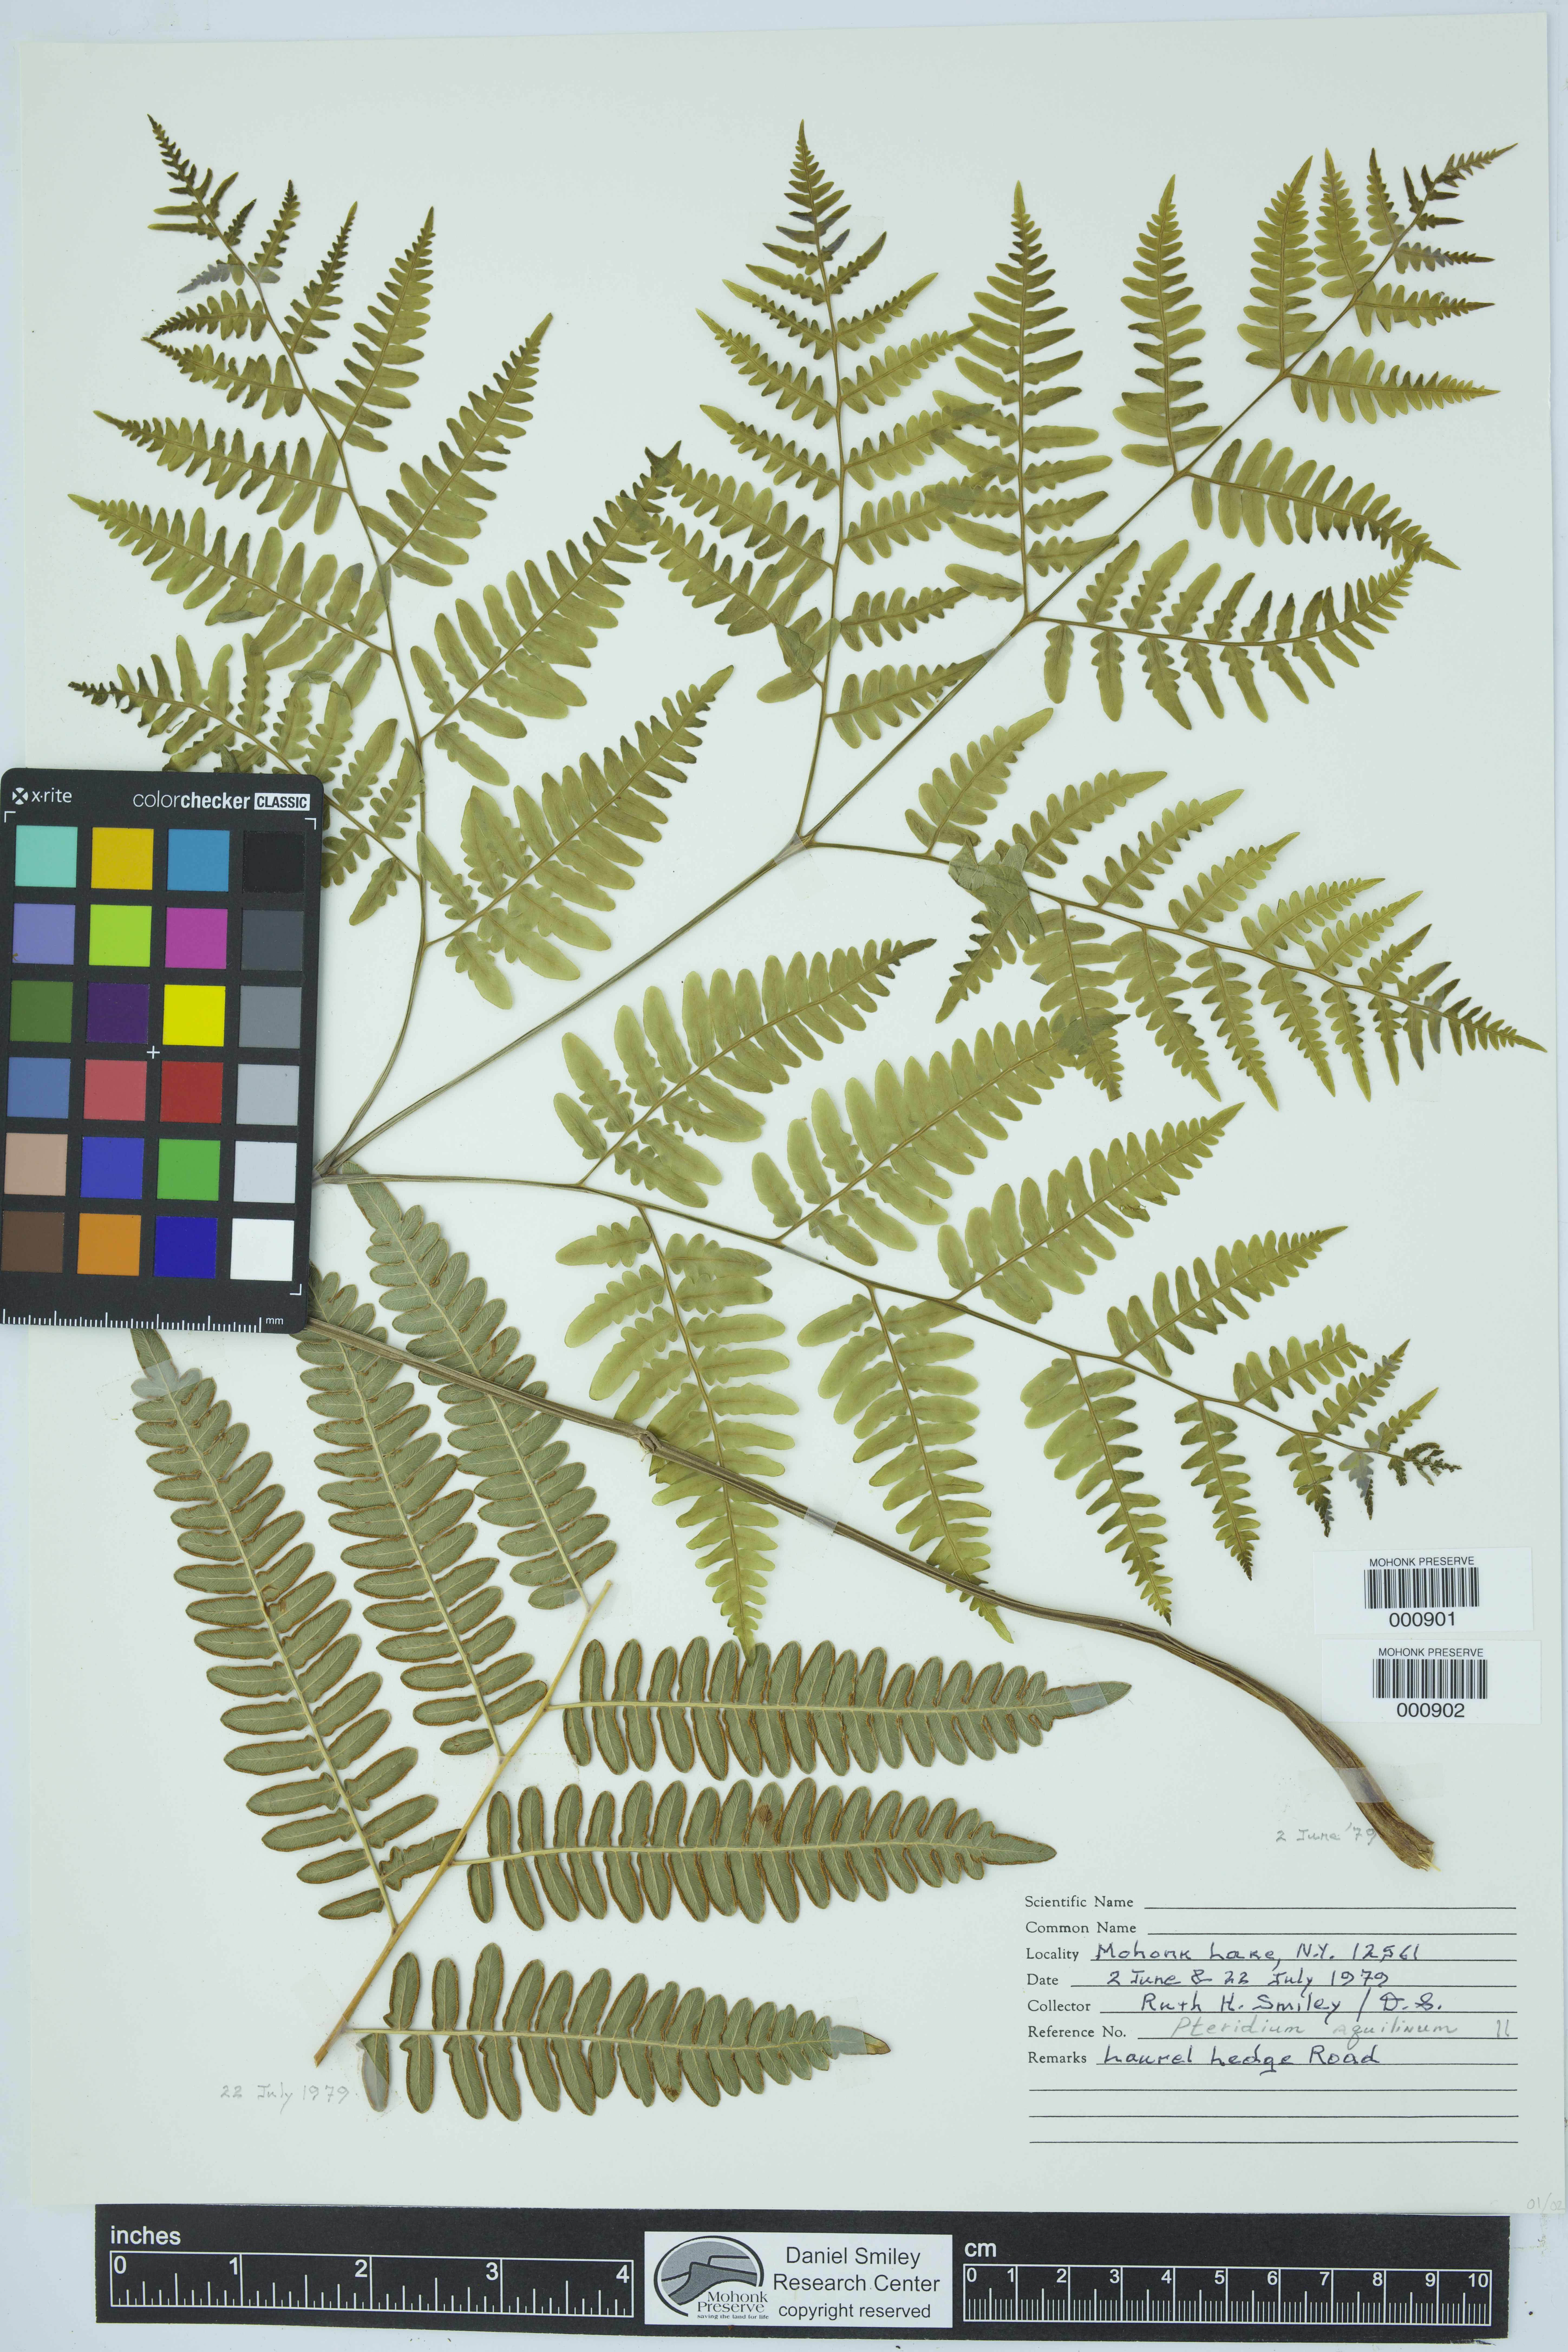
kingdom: Plantae
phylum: Tracheophyta
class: Polypodiopsida
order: Polypodiales
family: Dennstaedtiaceae
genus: Pteridium
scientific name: Pteridium aquilinum
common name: Bracken
